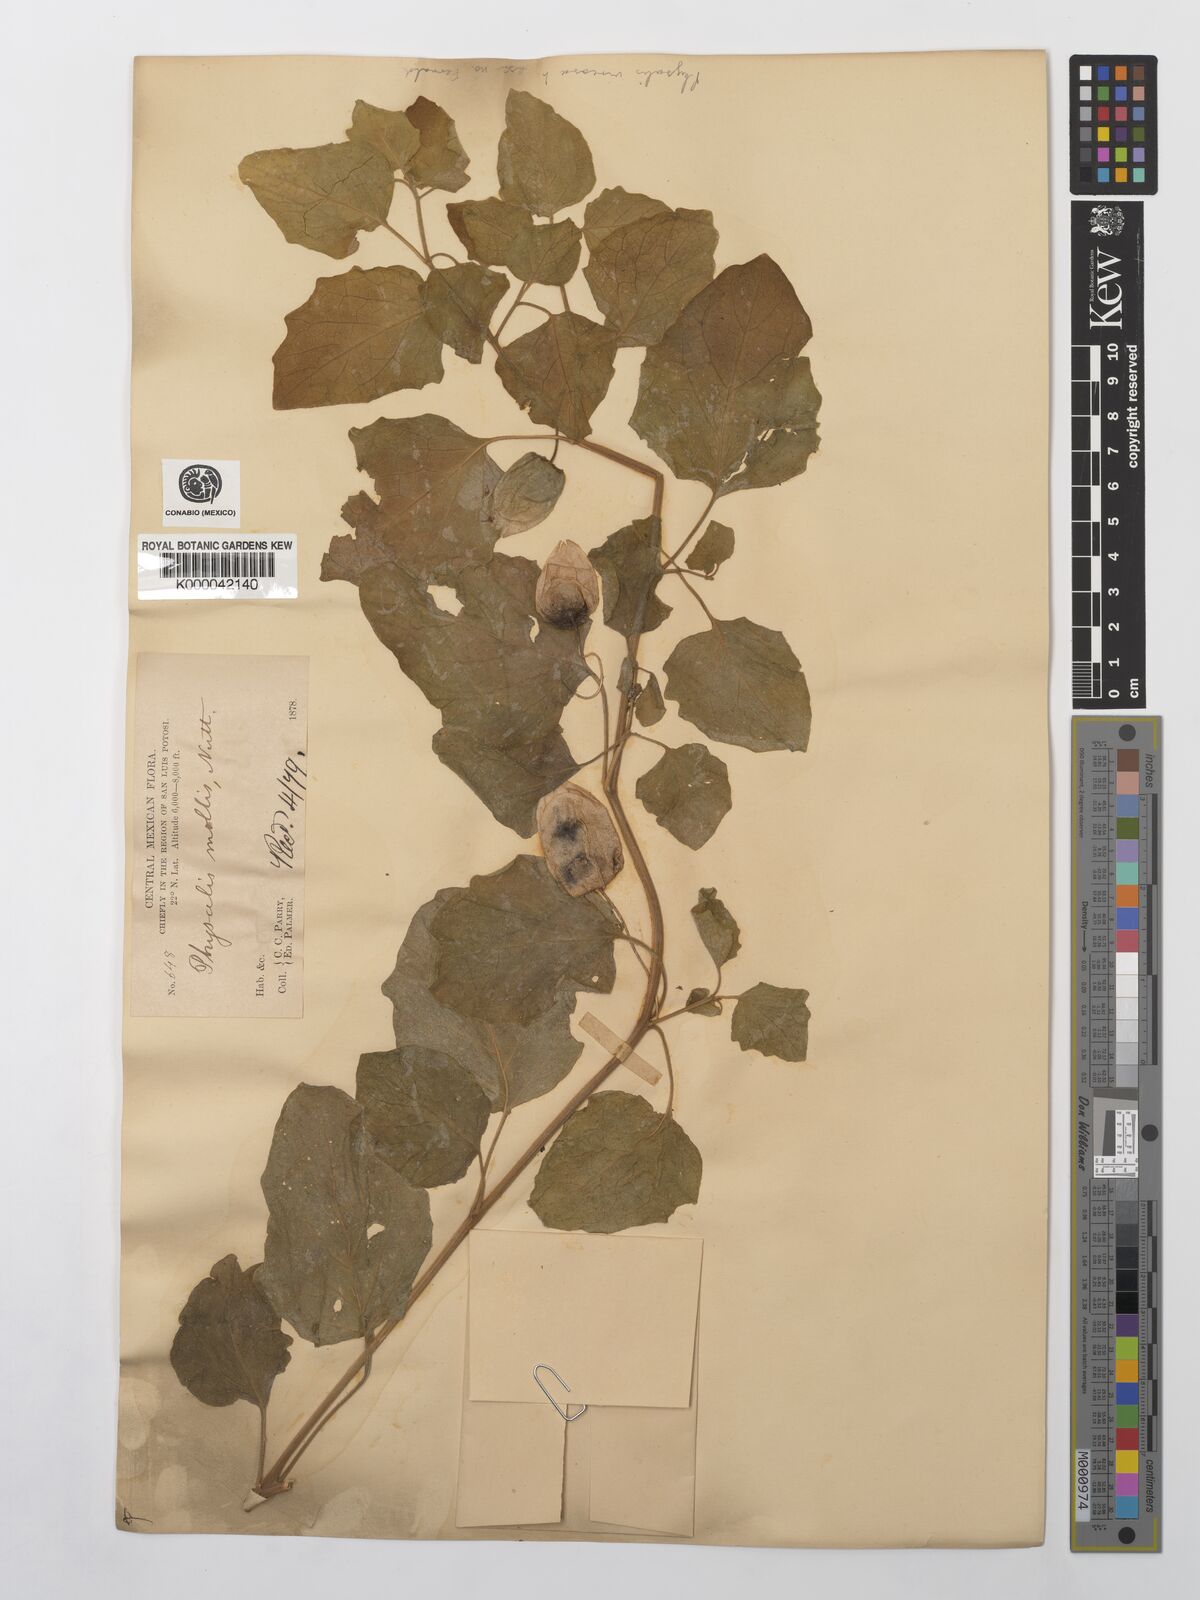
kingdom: Plantae
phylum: Tracheophyta
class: Magnoliopsida
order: Solanales
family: Solanaceae
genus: Physalis
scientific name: Physalis cinerascens
